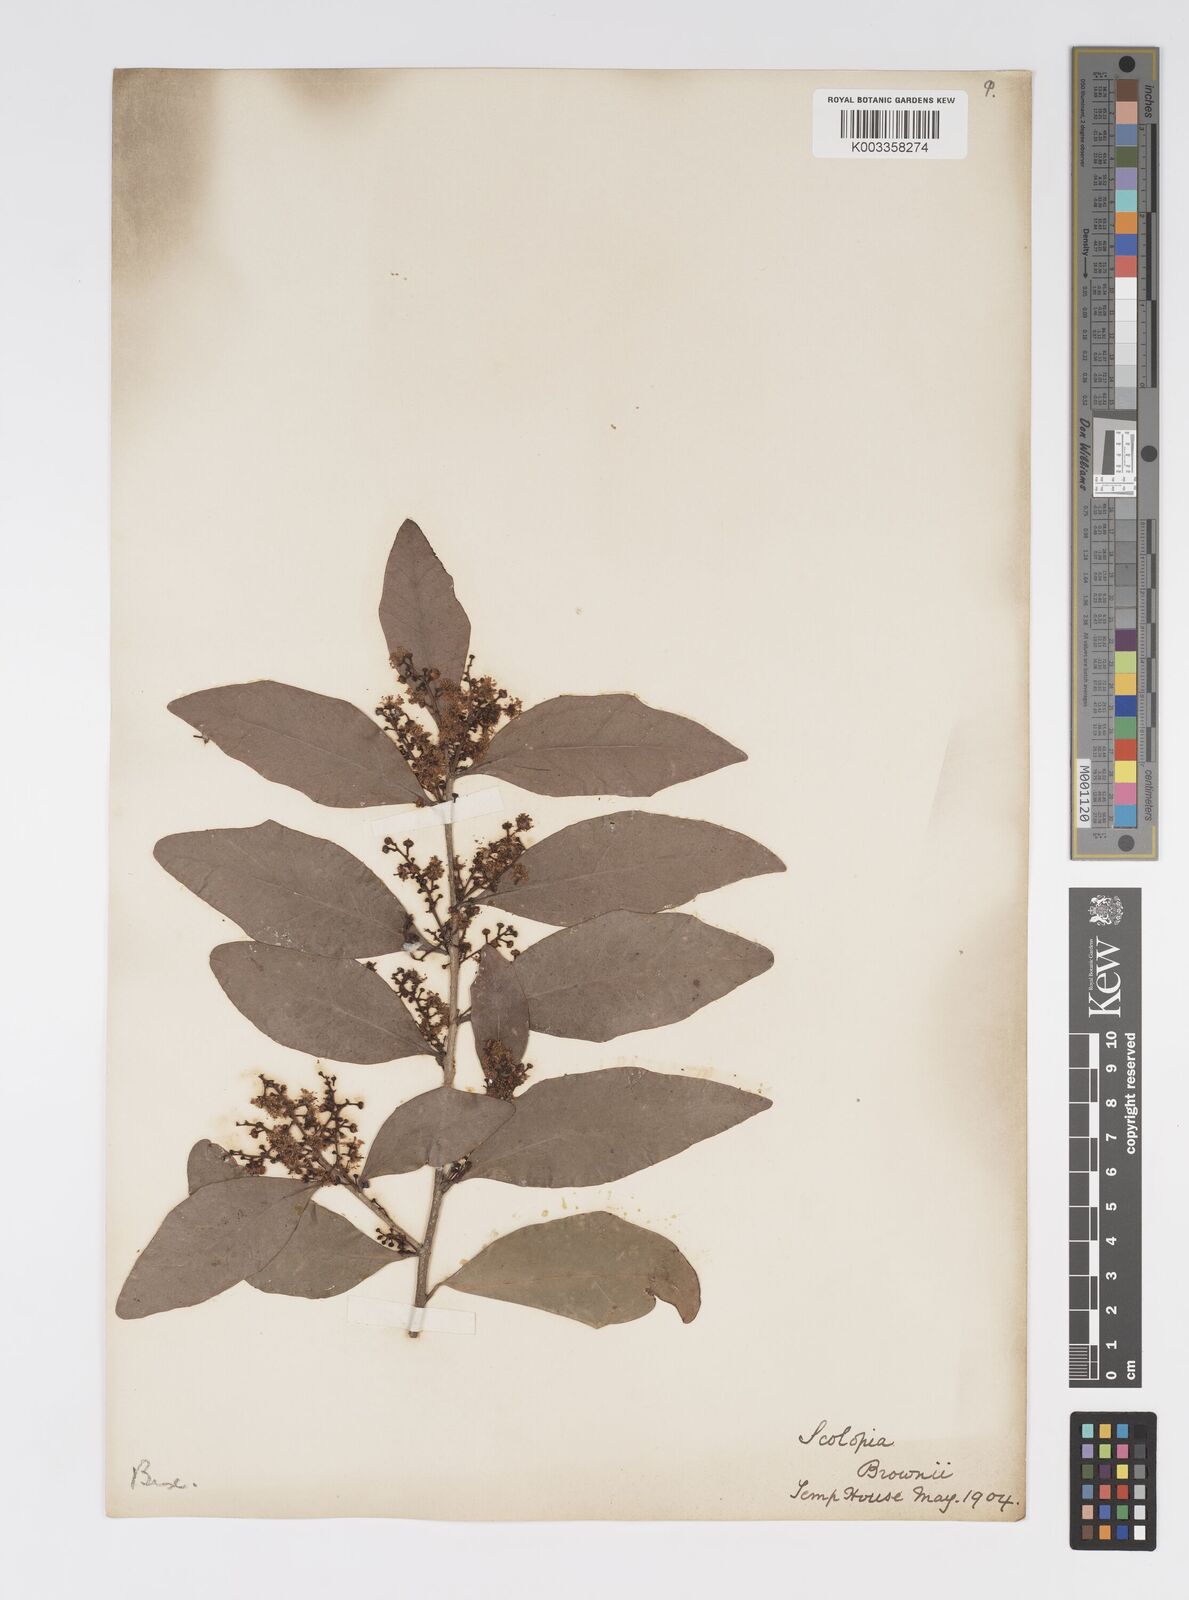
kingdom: Plantae
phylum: Tracheophyta
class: Magnoliopsida
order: Malpighiales
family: Salicaceae
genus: Scolopia
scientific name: Scolopia braunii
